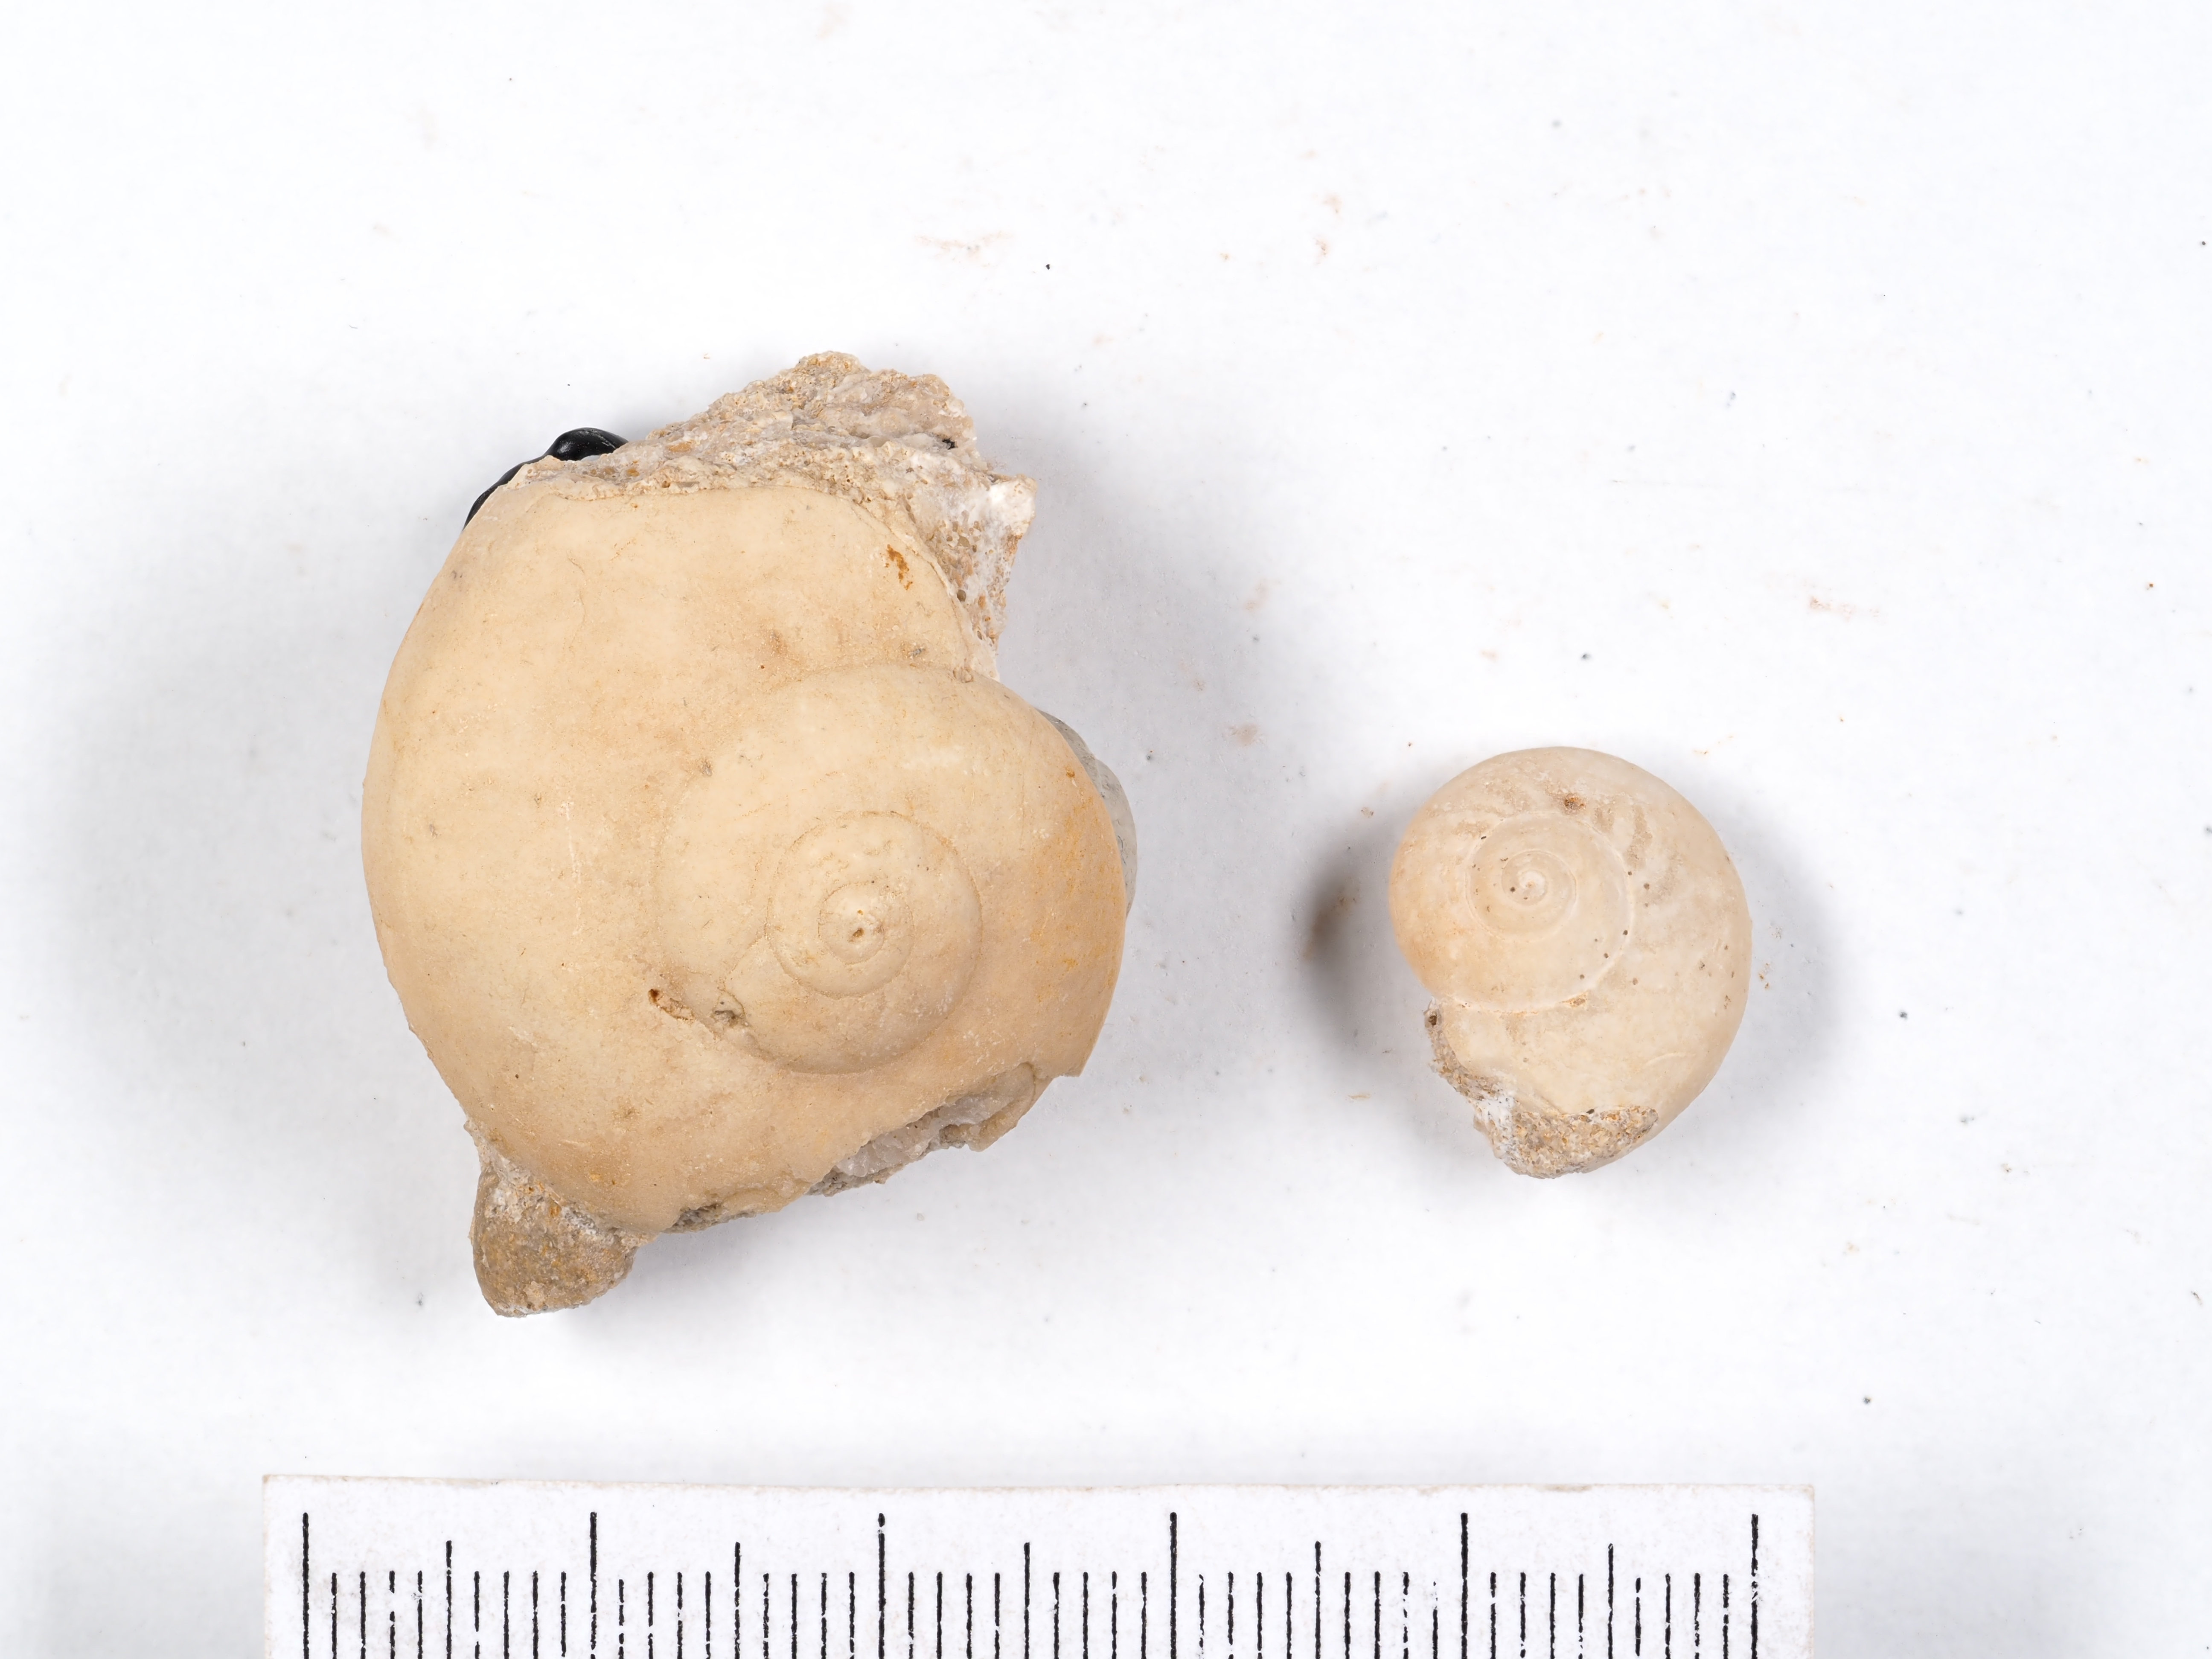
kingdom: Animalia
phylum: Mollusca
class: Gastropoda
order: Pleurotomariida
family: Ptychomphalidae
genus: Ptychomphalus
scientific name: Ptychomphalus Pleurotomaria rotellaeformis
